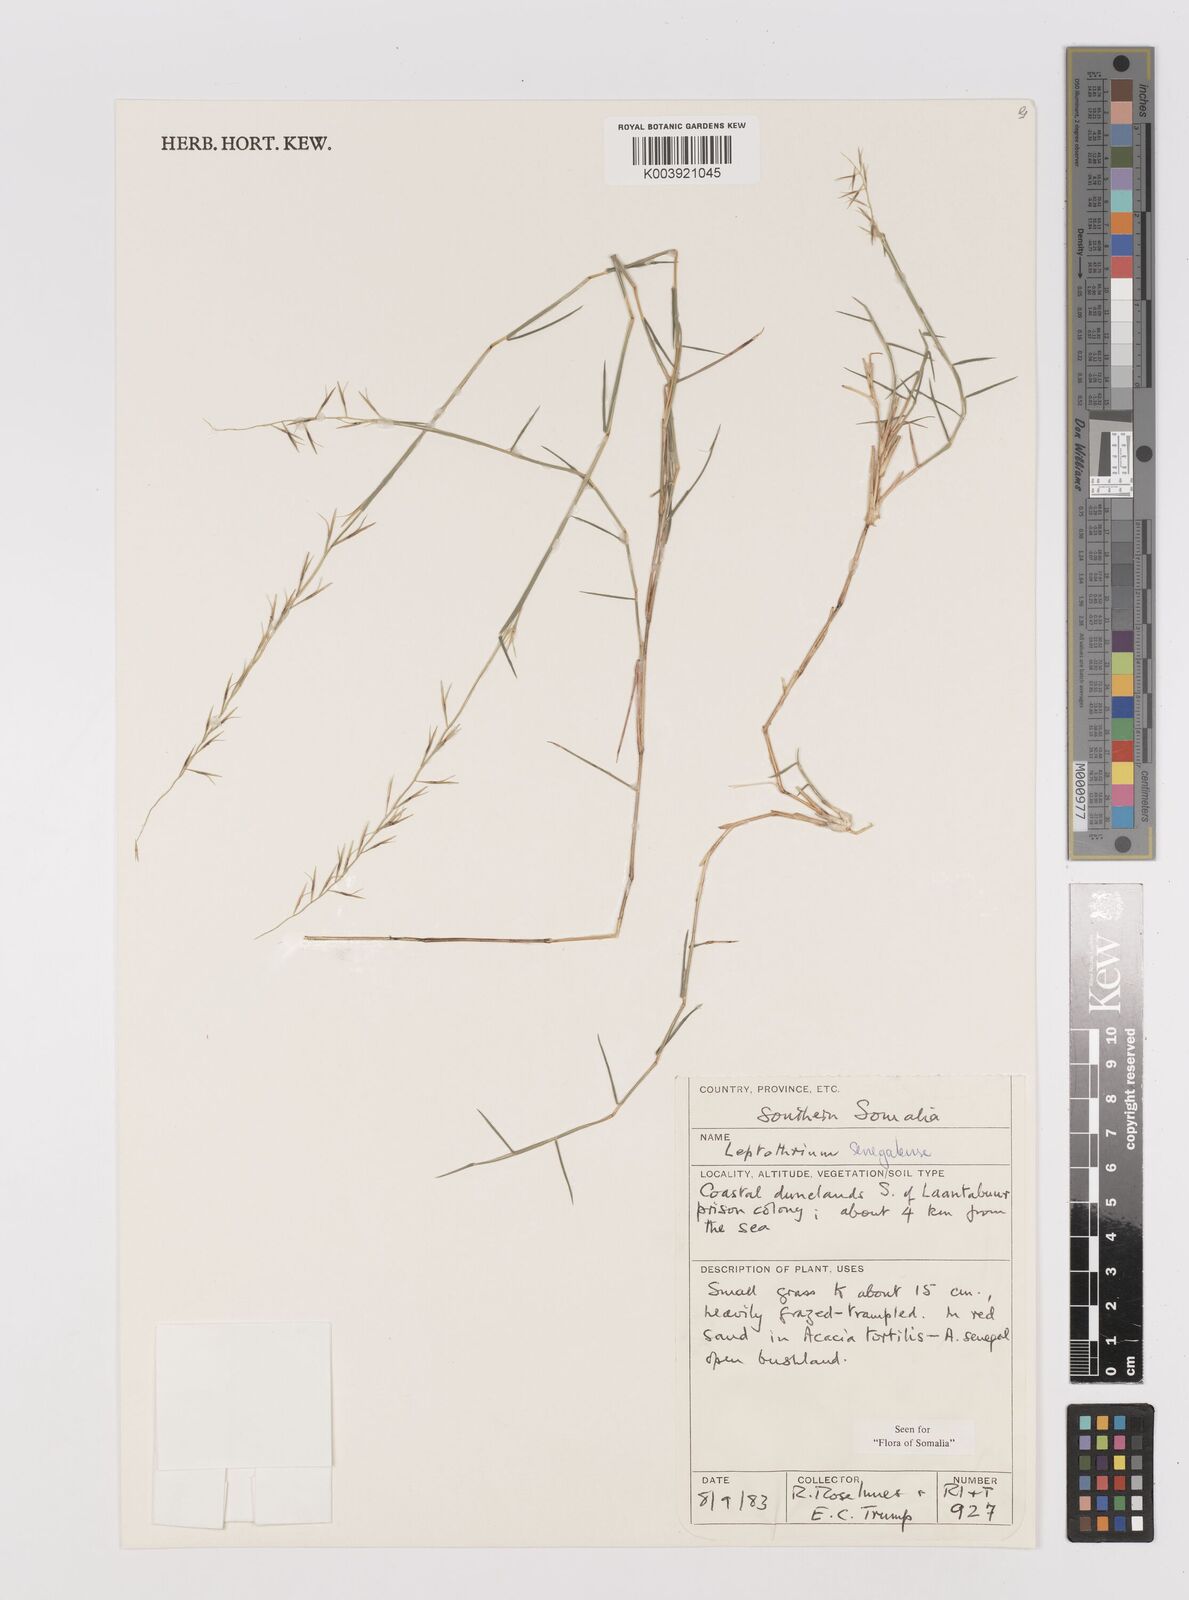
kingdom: Plantae
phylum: Tracheophyta
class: Liliopsida
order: Poales
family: Poaceae
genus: Leptothrium
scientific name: Leptothrium senegalense
